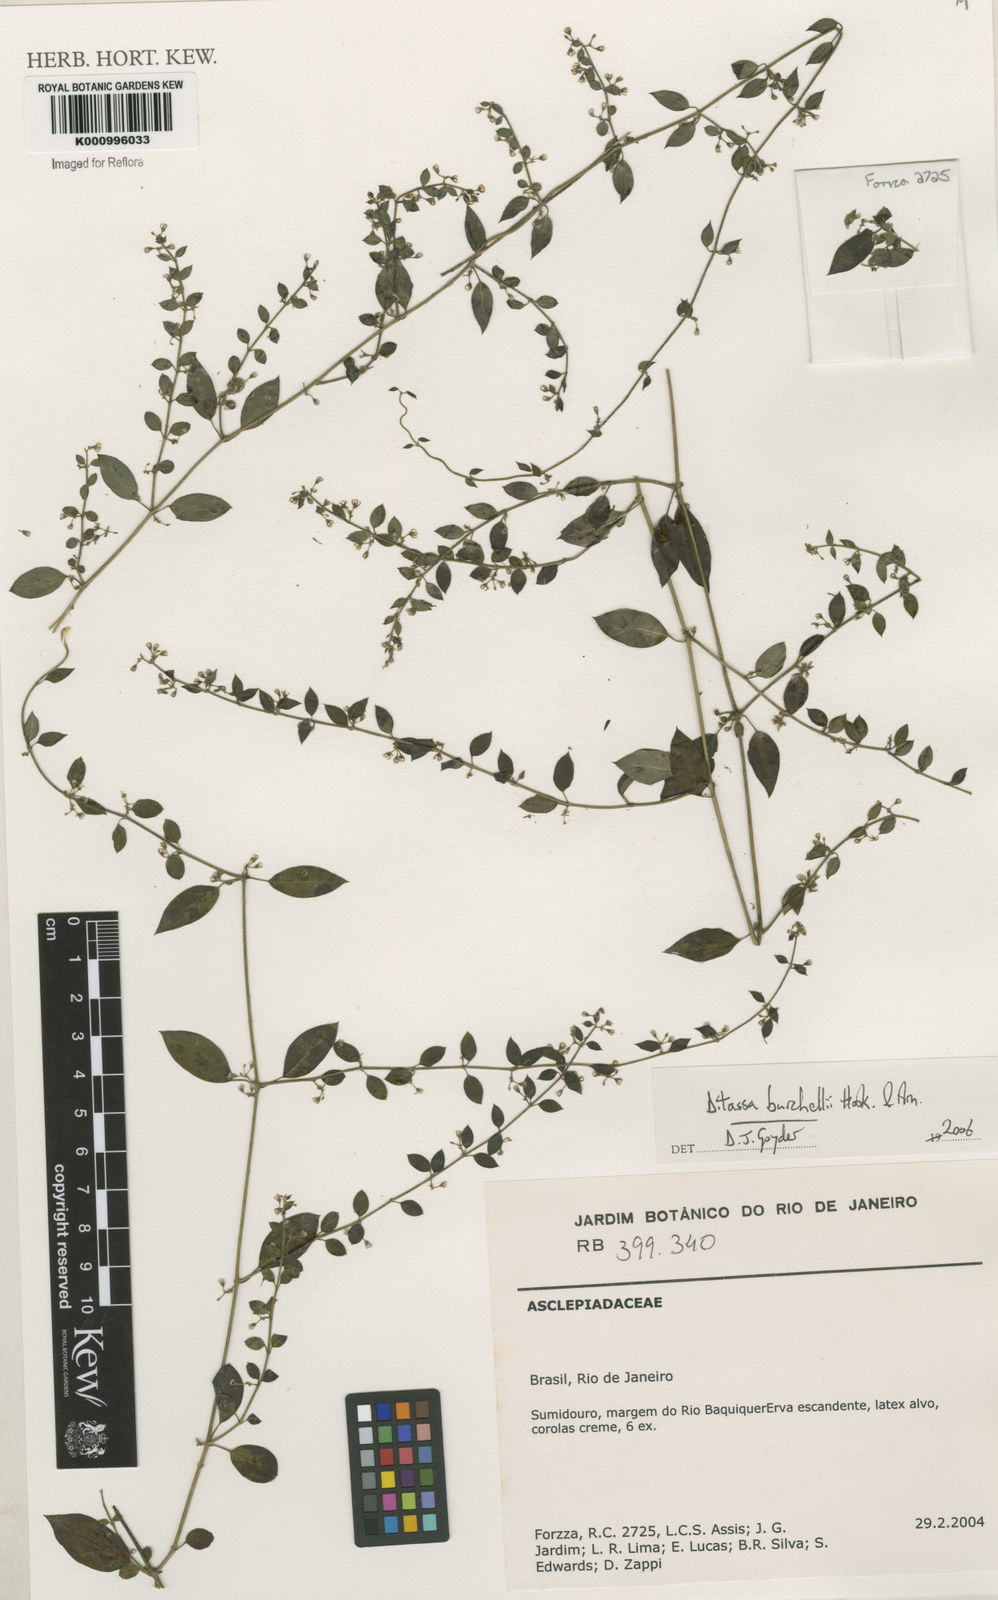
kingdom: Plantae
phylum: Tracheophyta
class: Magnoliopsida
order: Gentianales
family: Apocynaceae
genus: Metastelma
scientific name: Metastelma burchellii
